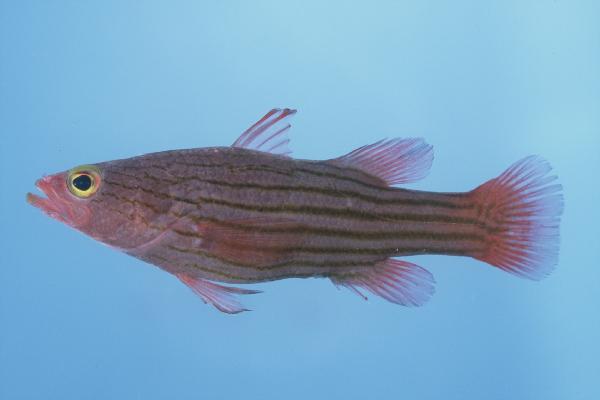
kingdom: Animalia
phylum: Chordata
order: Perciformes
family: Serranidae
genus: Liopropoma
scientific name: Liopropoma susumi
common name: Striped basslet
